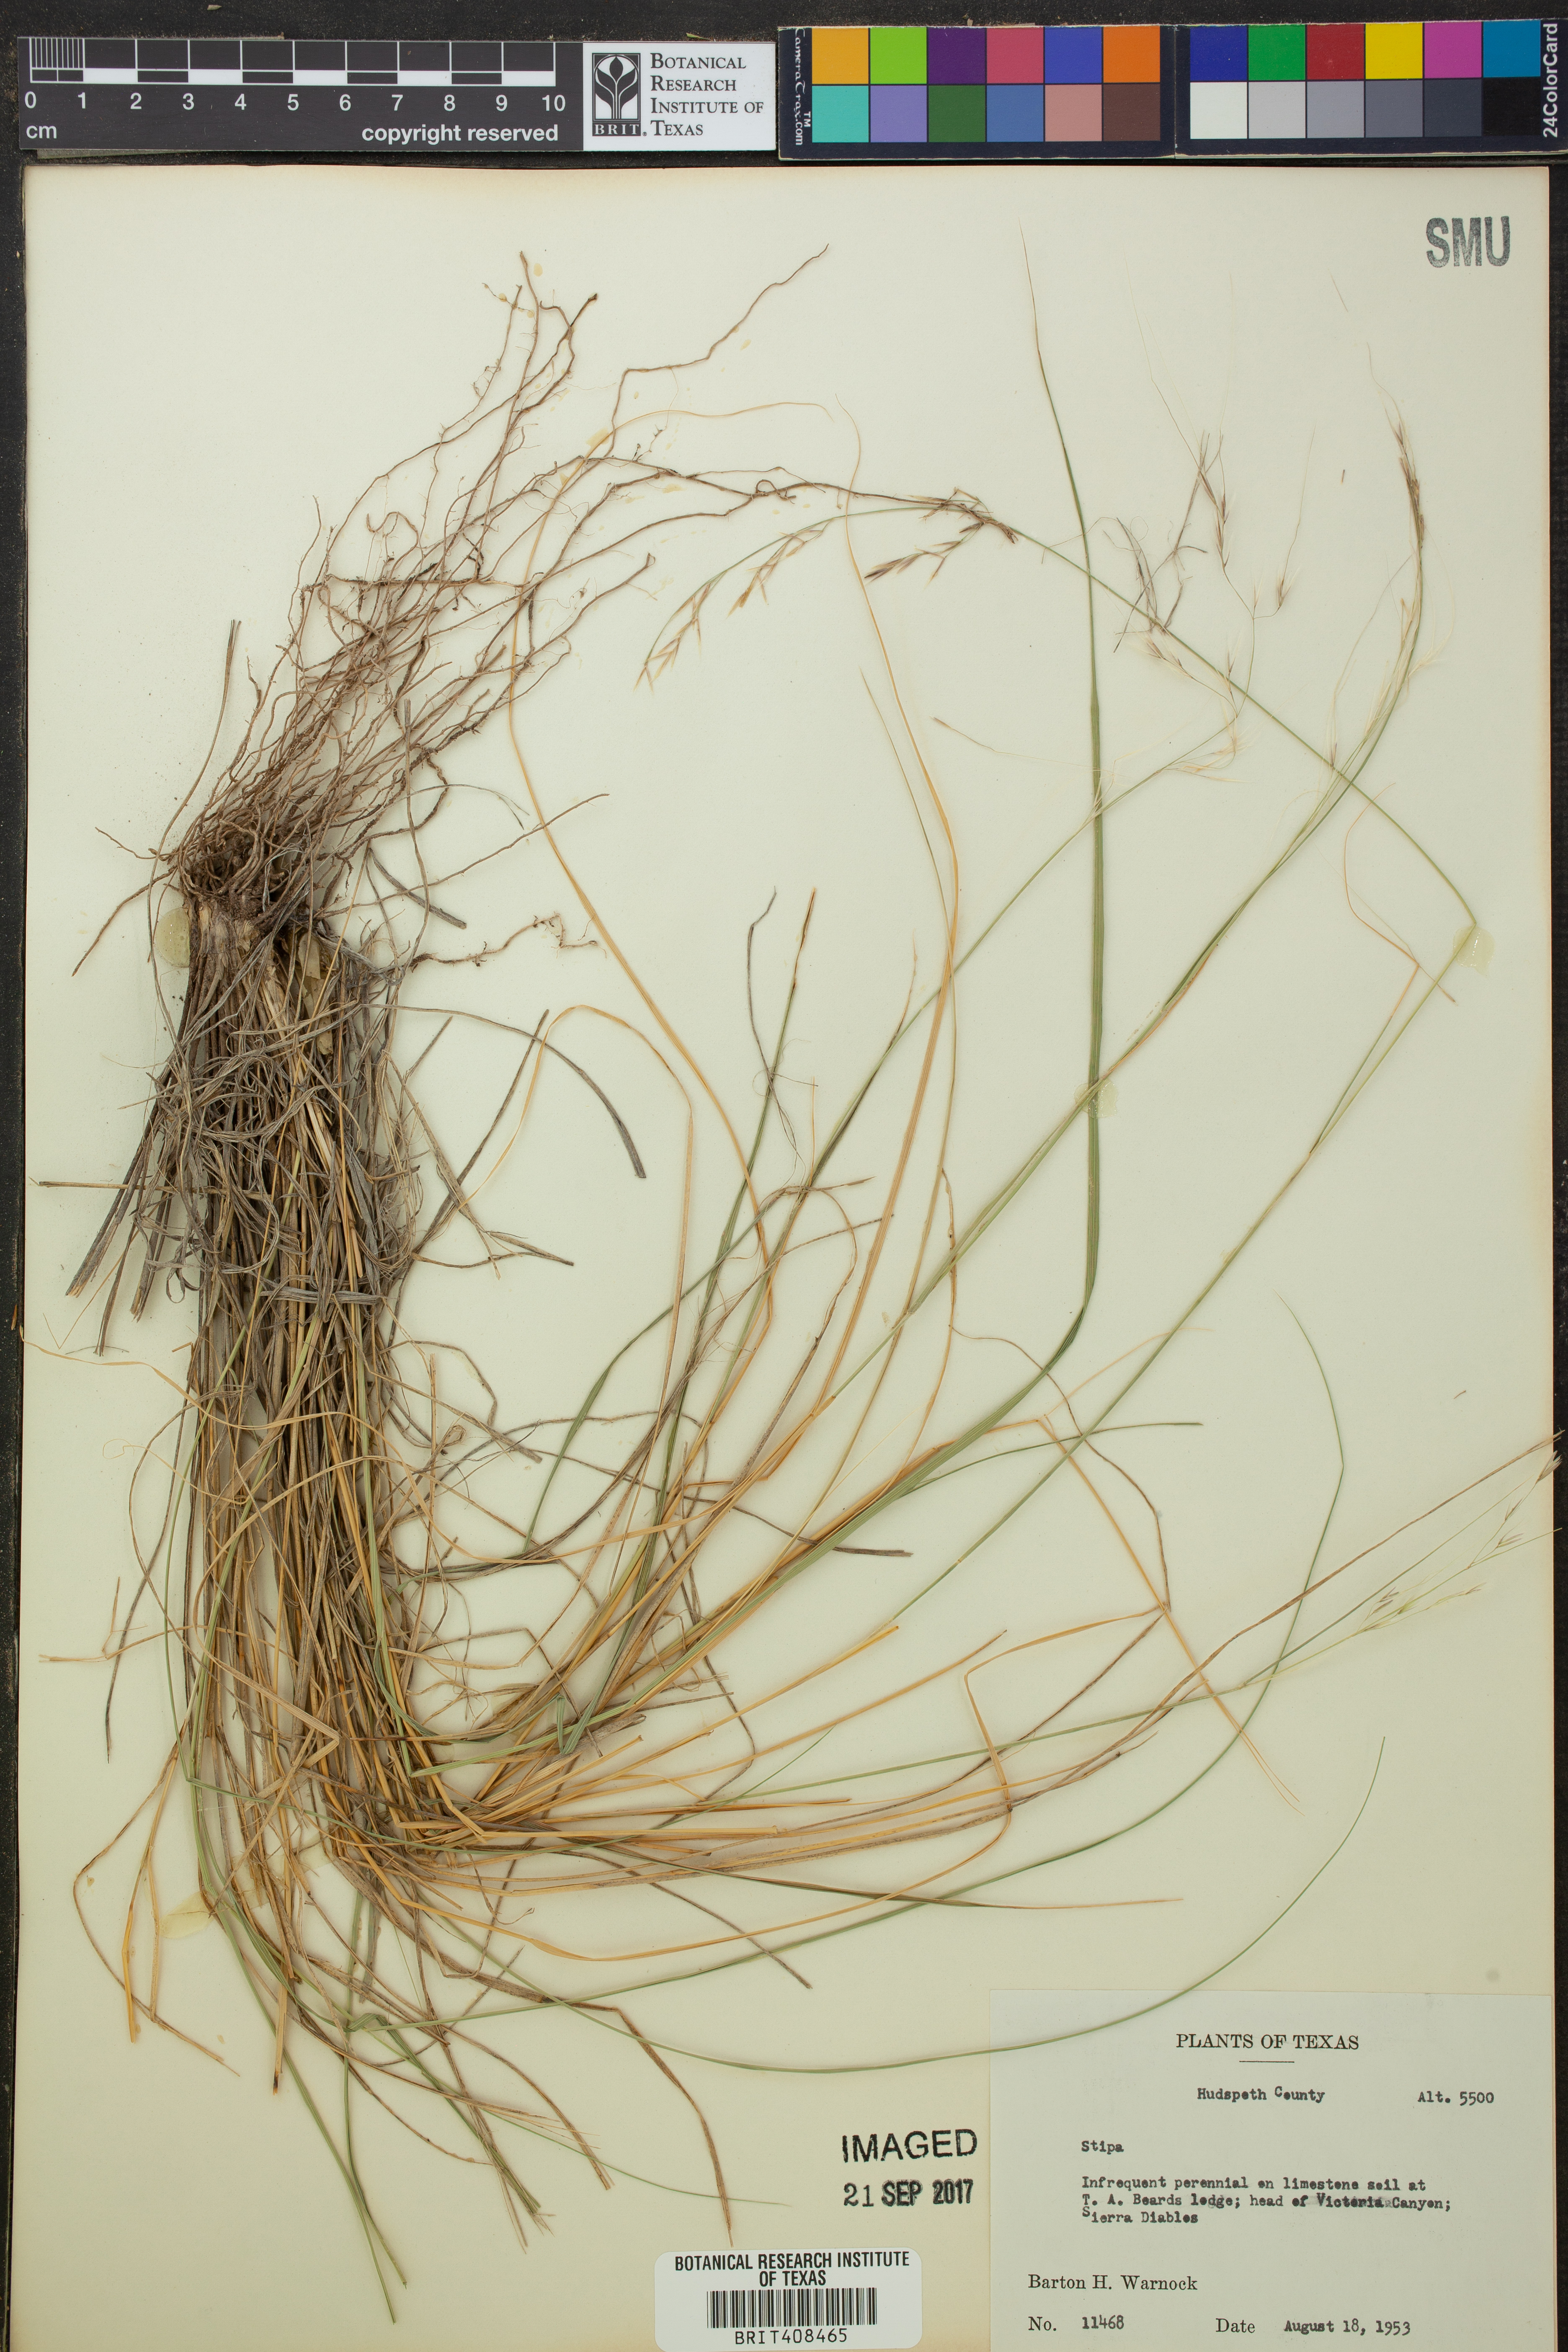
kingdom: Plantae
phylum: Tracheophyta
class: Liliopsida
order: Poales
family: Poaceae
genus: Stipa
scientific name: Stipa
